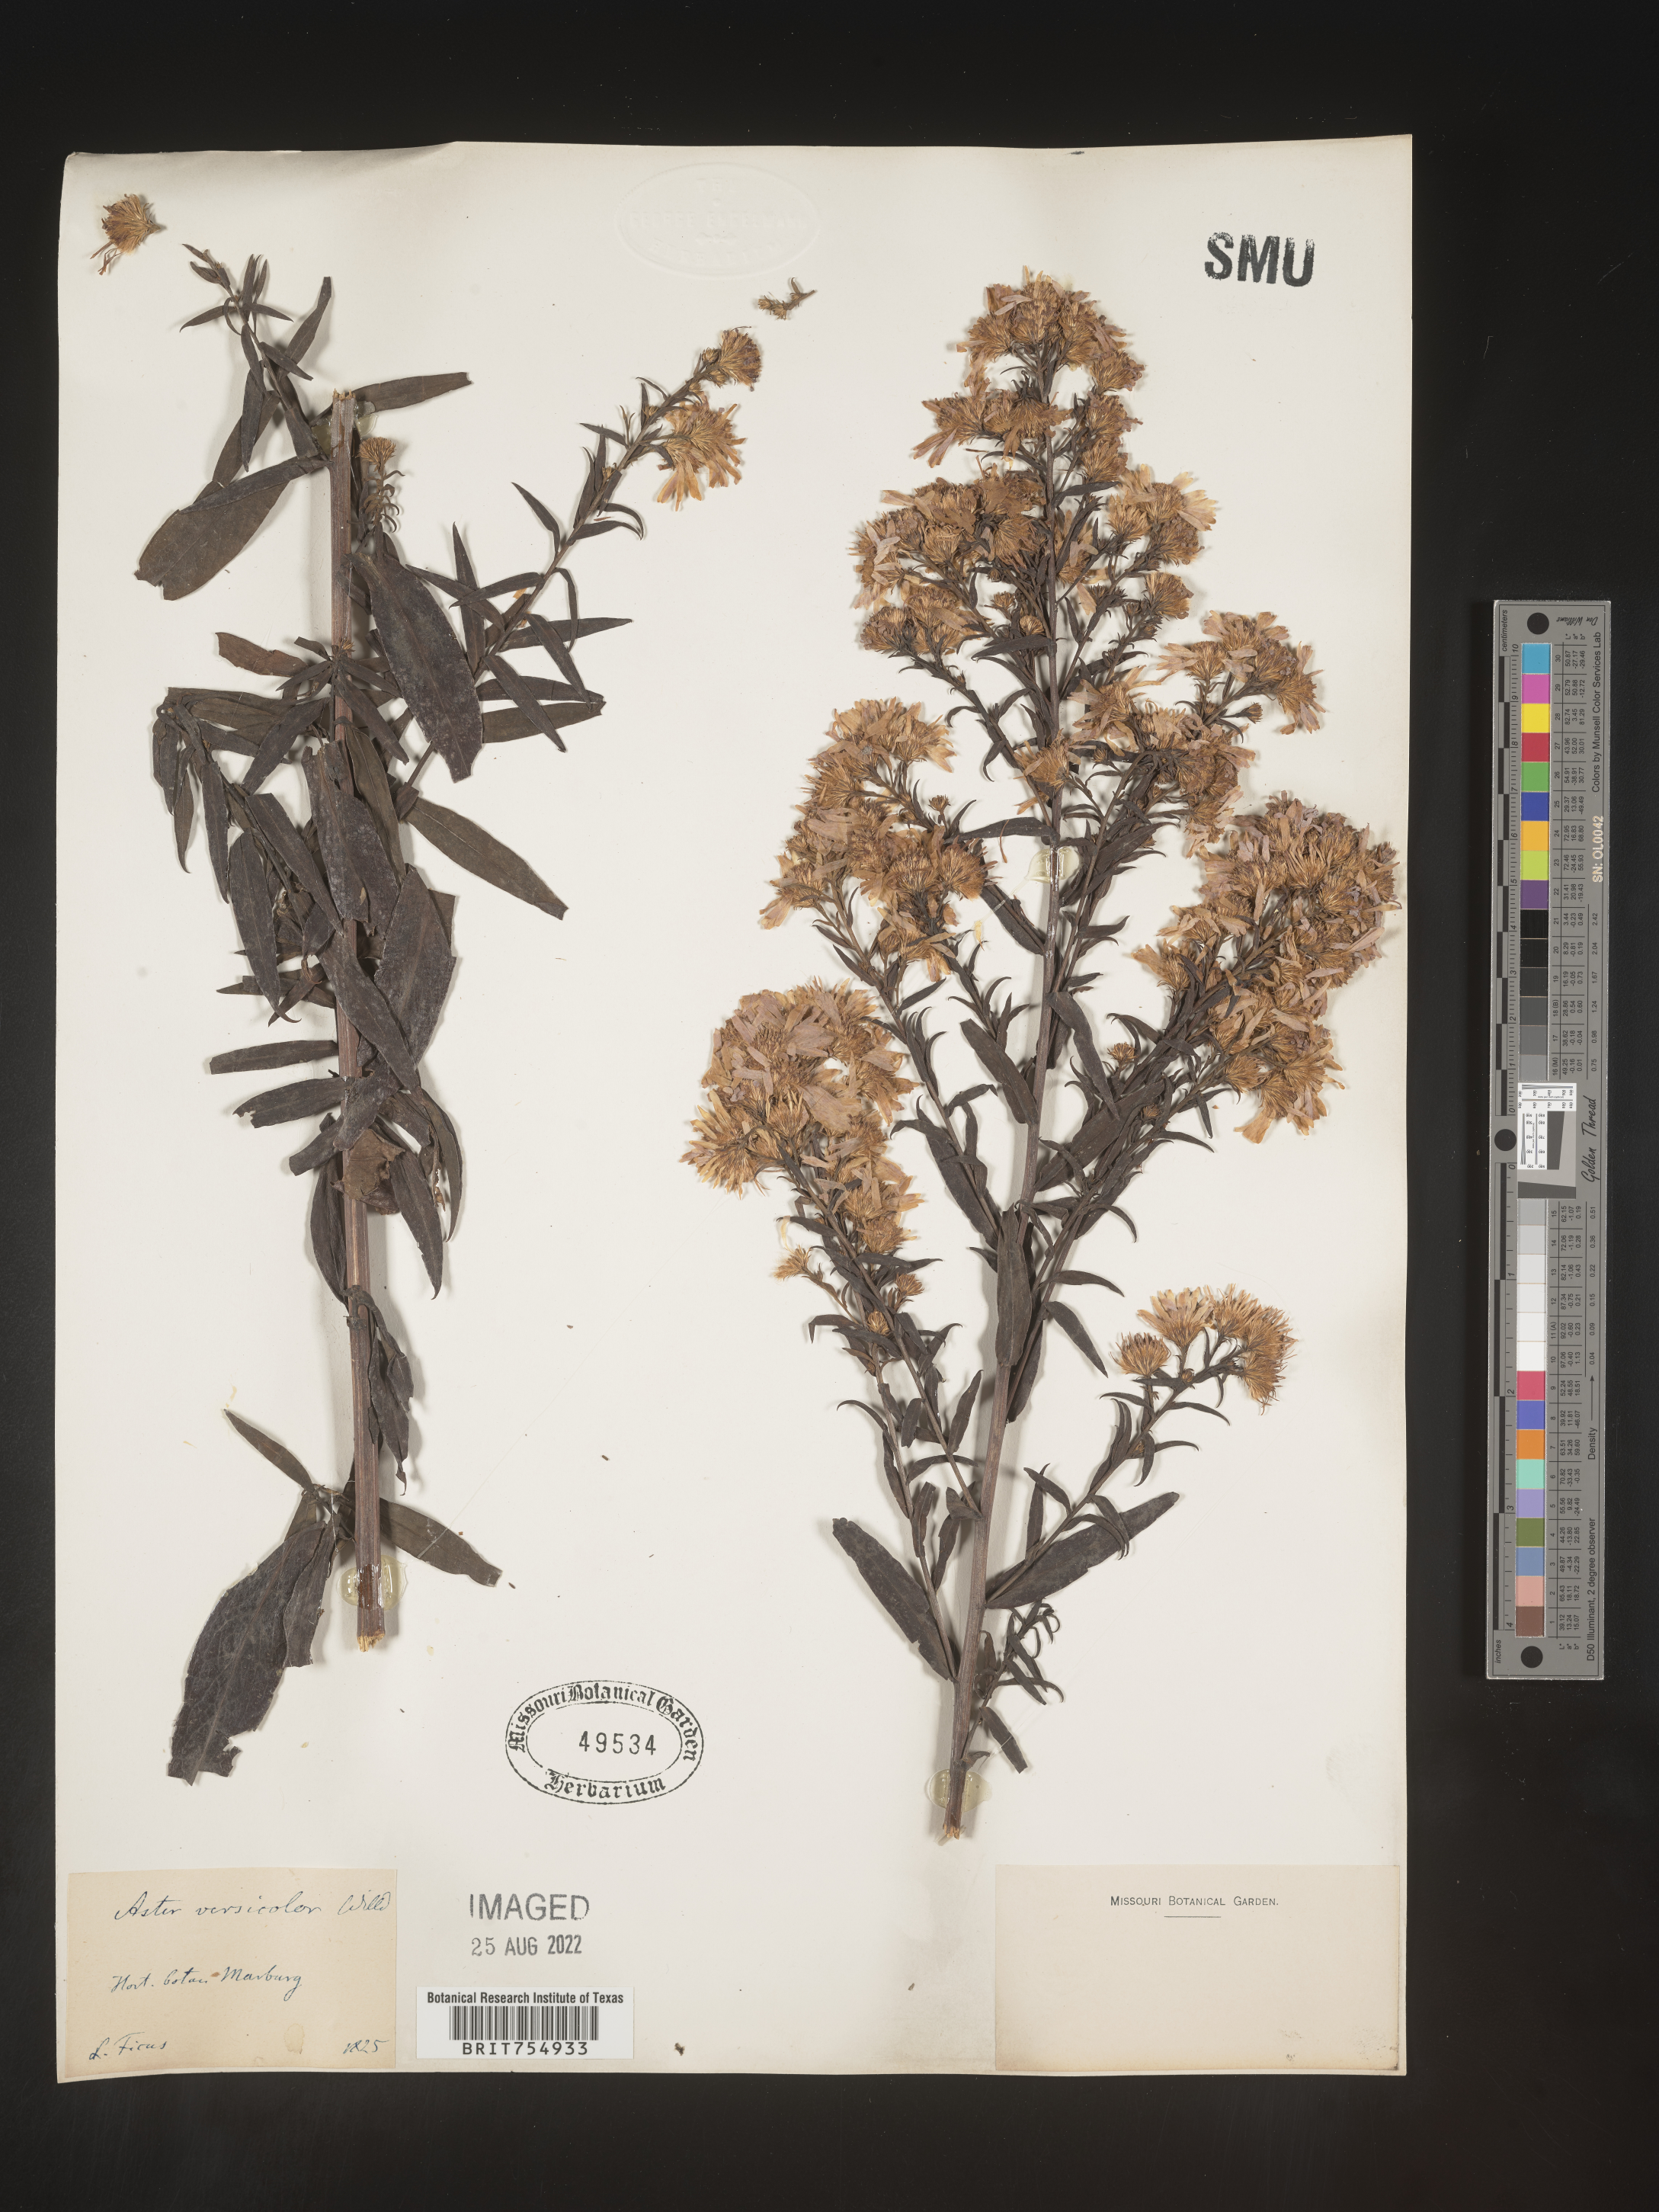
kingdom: Plantae
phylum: Tracheophyta
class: Magnoliopsida
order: Asterales
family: Asteraceae
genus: Symphyotrichum
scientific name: Symphyotrichum
